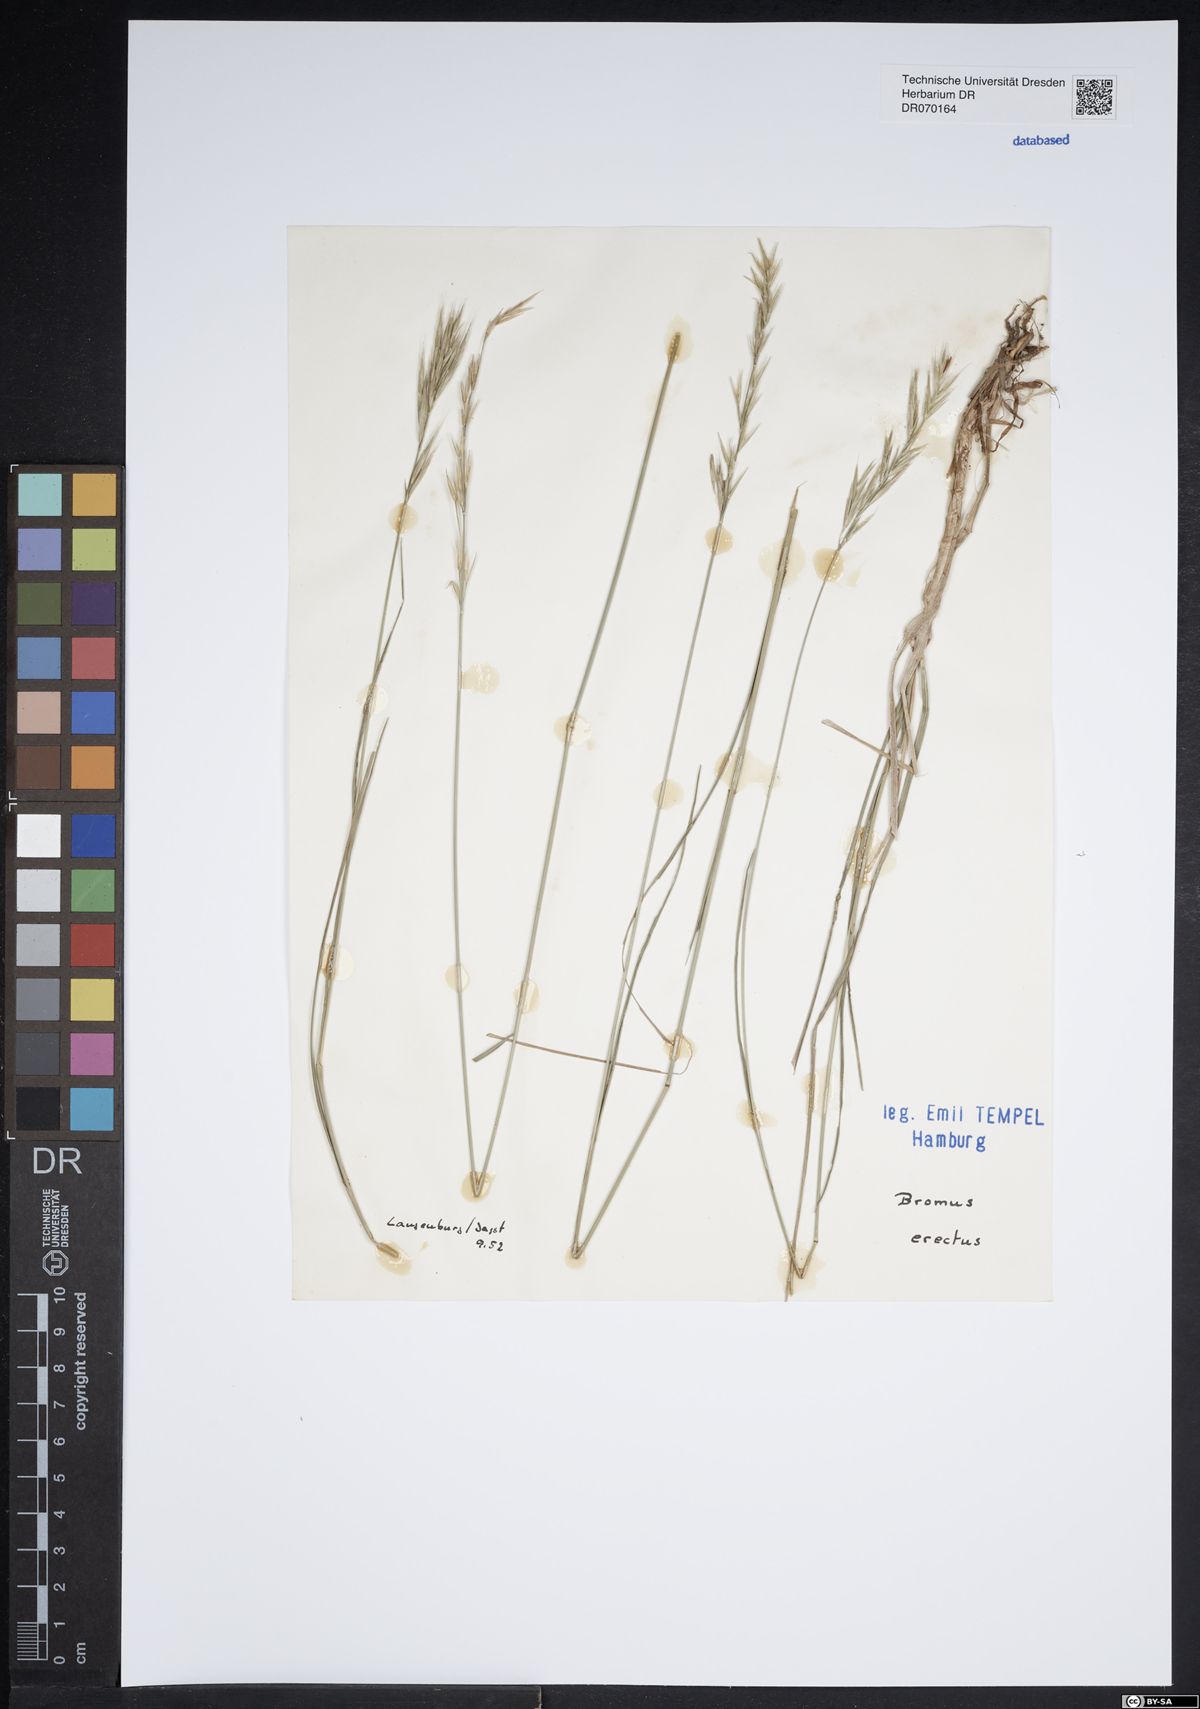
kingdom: Plantae
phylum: Tracheophyta
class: Liliopsida
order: Poales
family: Poaceae
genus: Bromus
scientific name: Bromus erectus
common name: Erect brome
